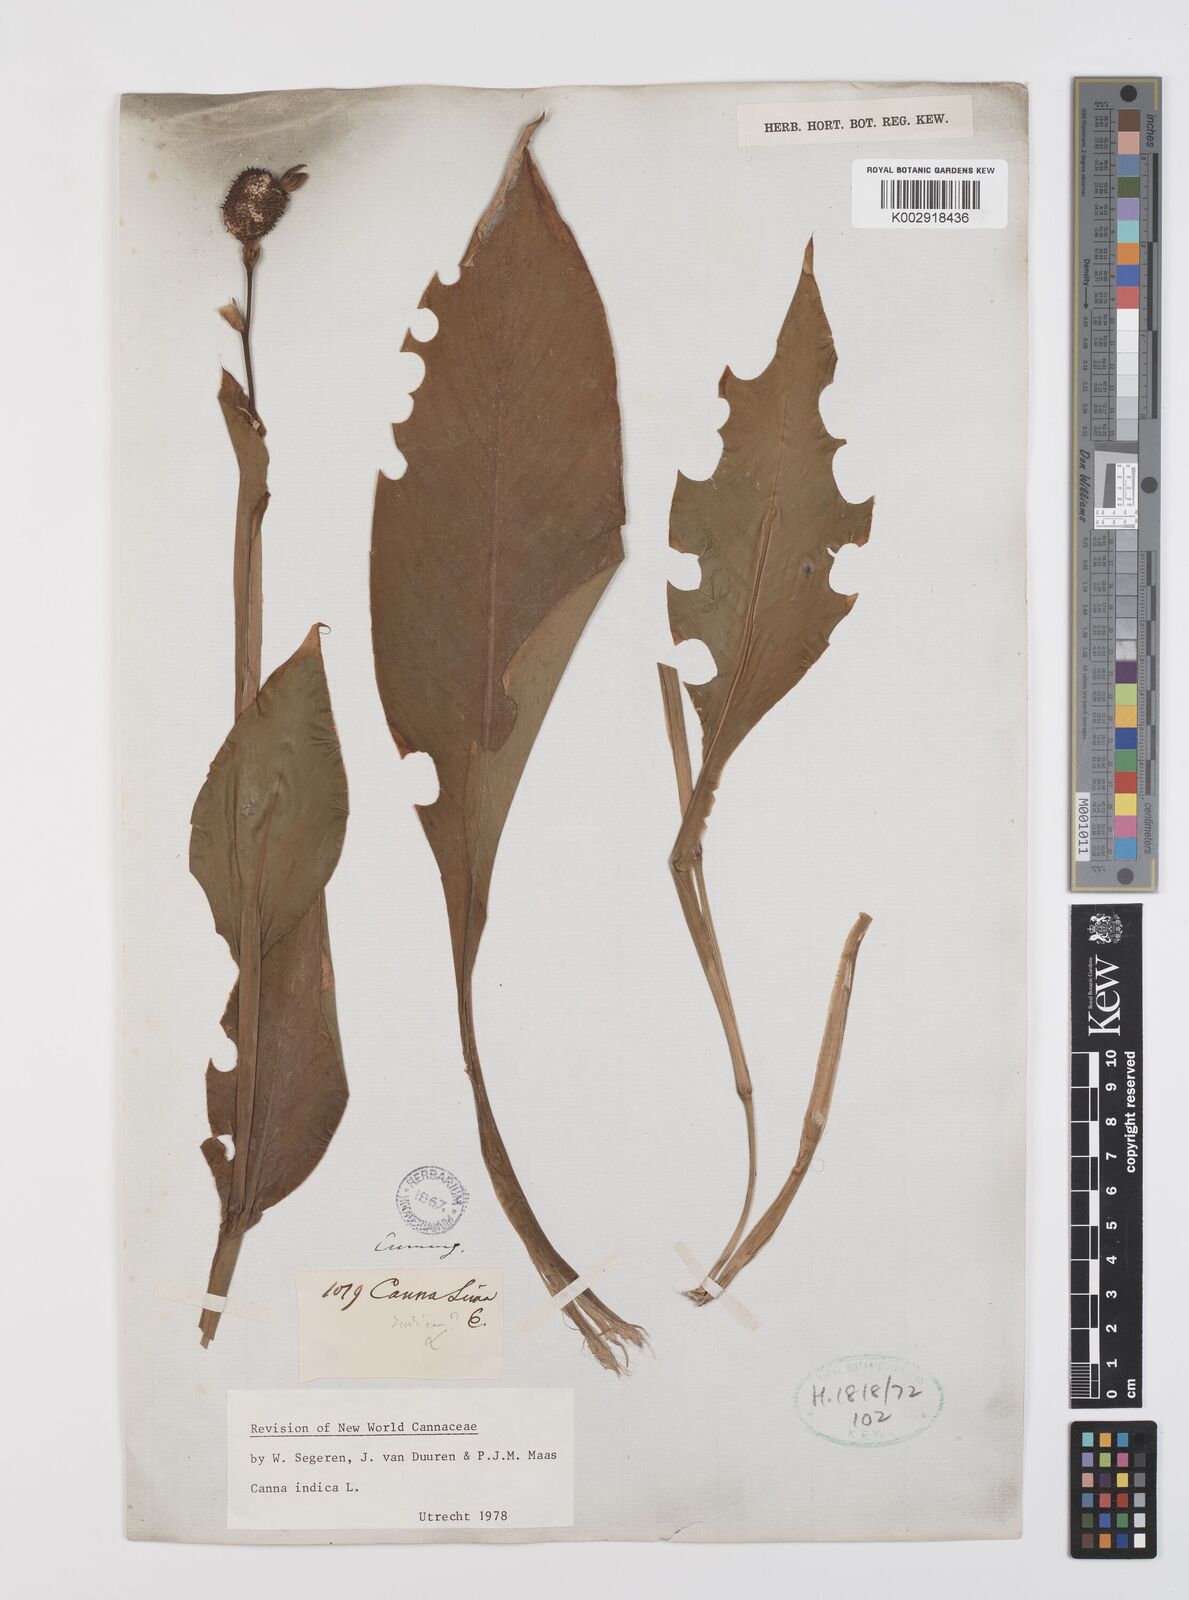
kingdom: Plantae
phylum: Tracheophyta
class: Liliopsida
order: Zingiberales
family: Cannaceae
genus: Canna
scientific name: Canna indica
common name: Indian shot
